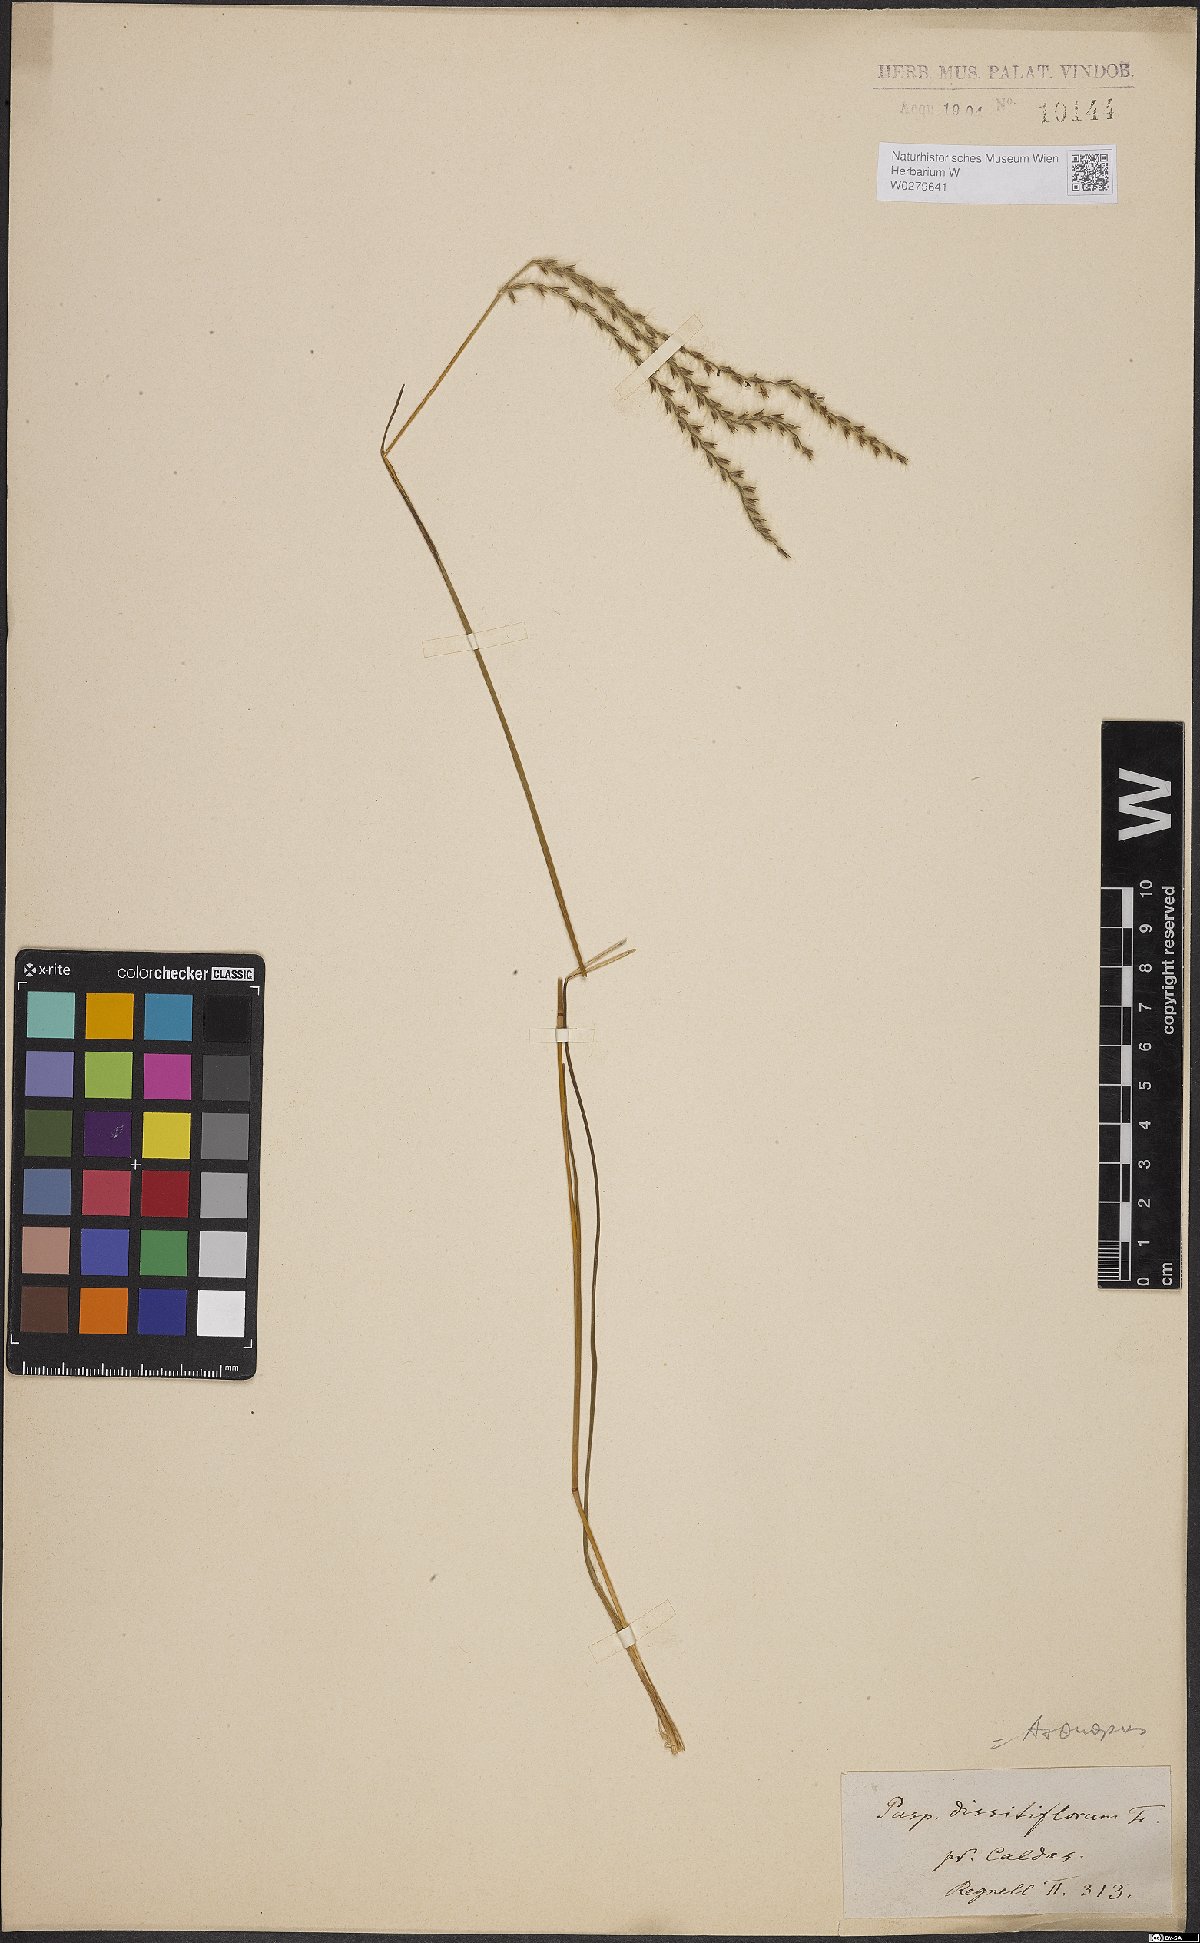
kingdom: Plantae
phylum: Tracheophyta
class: Liliopsida
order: Poales
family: Poaceae
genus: Axonopus
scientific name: Axonopus brasiliensis
